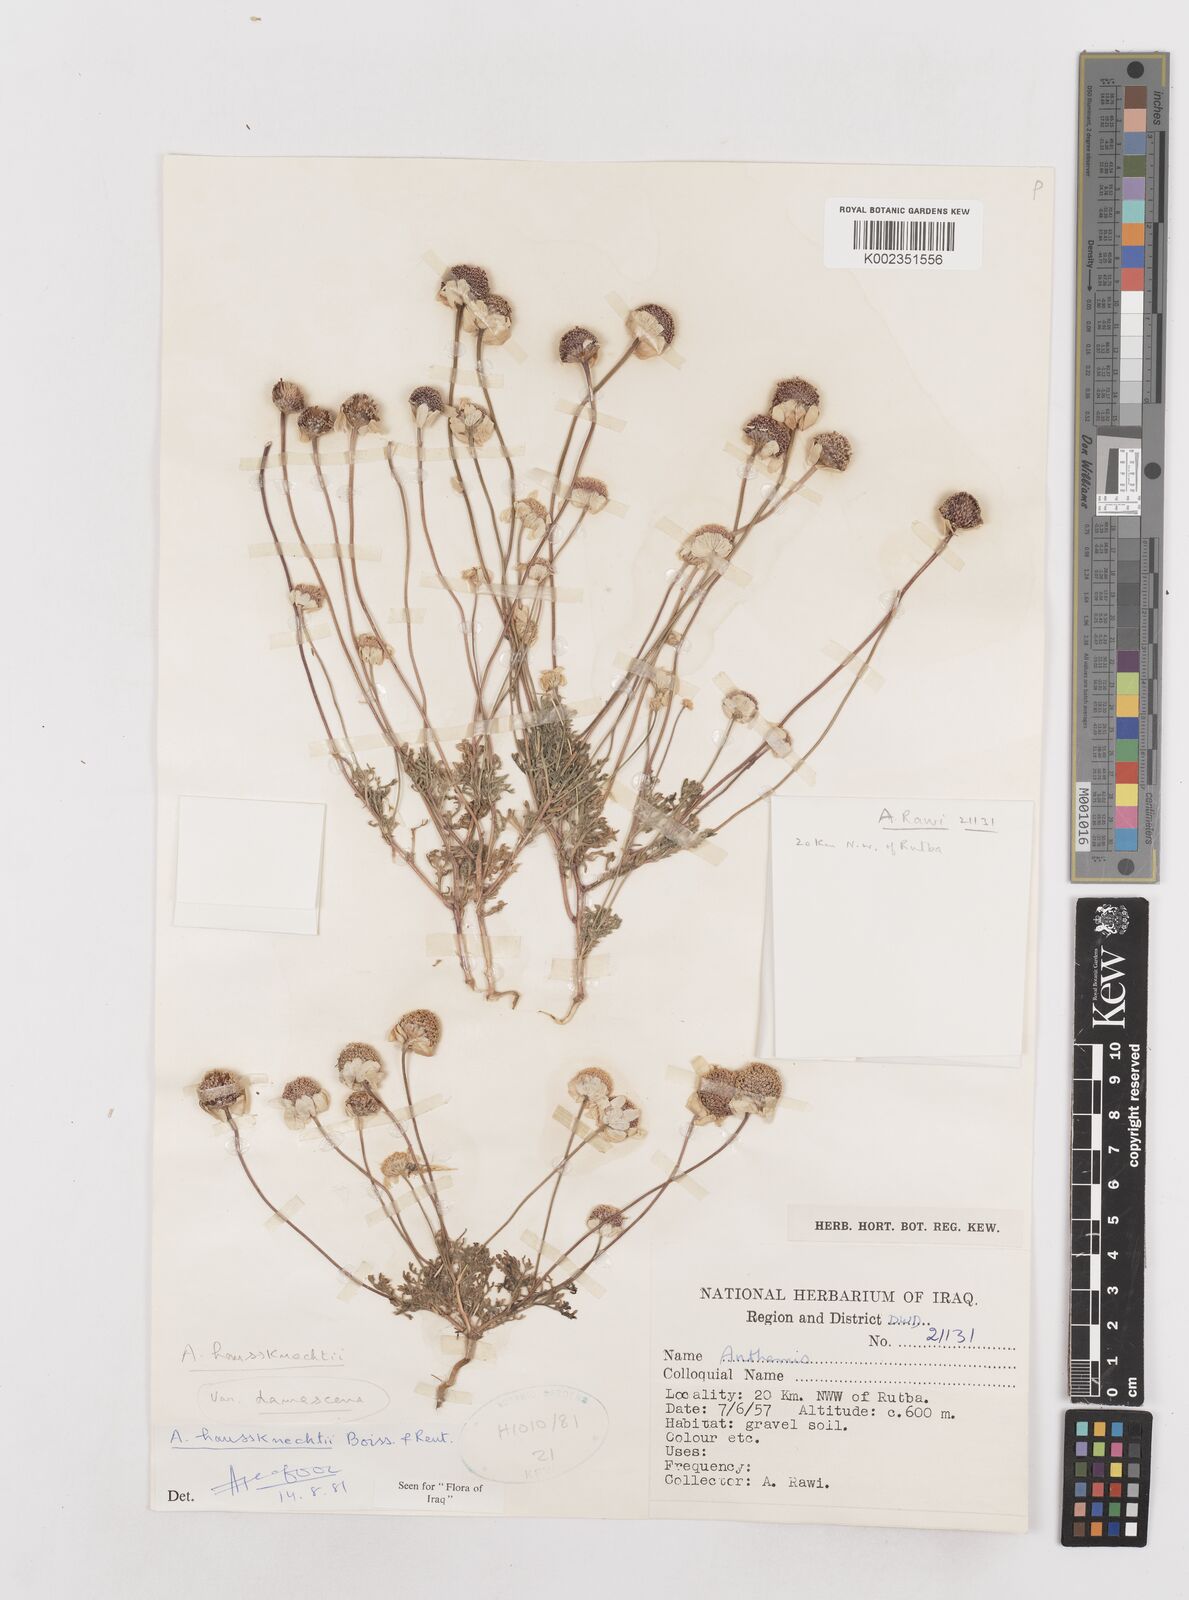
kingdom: Plantae
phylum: Tracheophyta
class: Magnoliopsida
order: Asterales
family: Asteraceae
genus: Anthemis
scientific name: Anthemis haussknechtii
